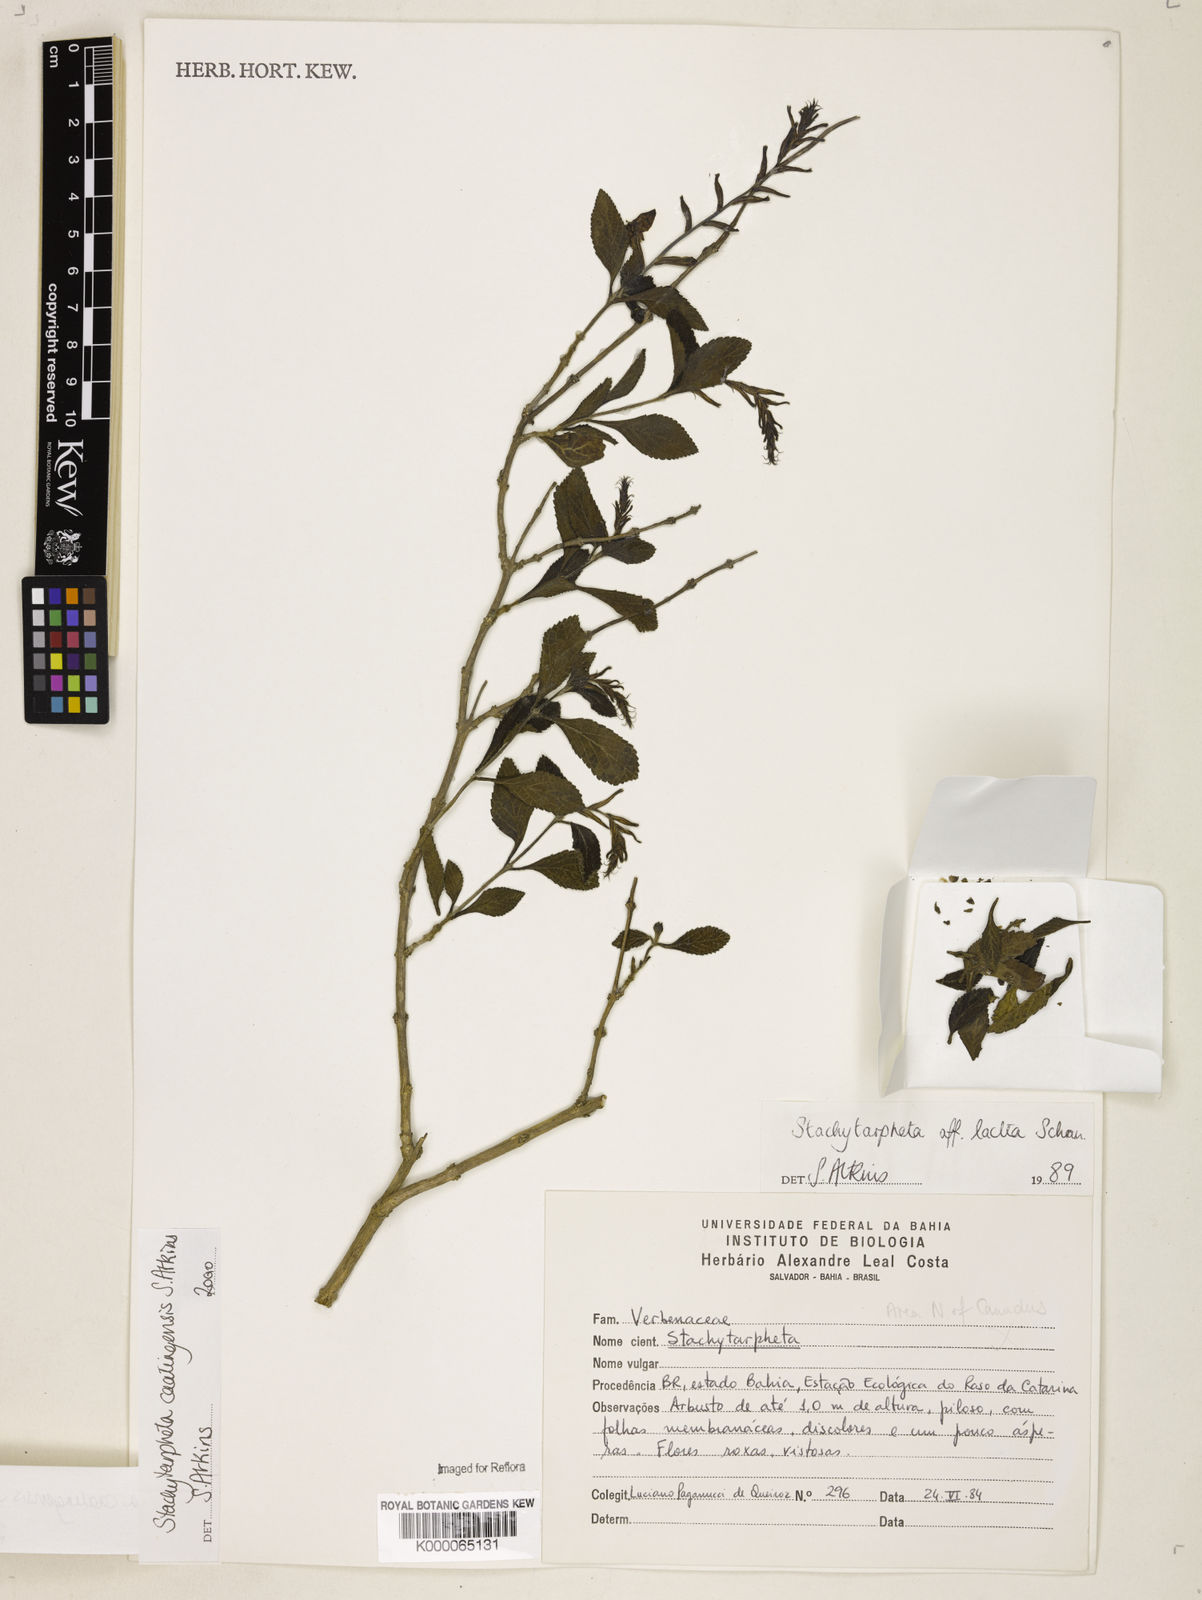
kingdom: Plantae
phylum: Tracheophyta
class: Magnoliopsida
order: Lamiales
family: Verbenaceae
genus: Stachytarpheta
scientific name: Stachytarpheta brasiliensis
